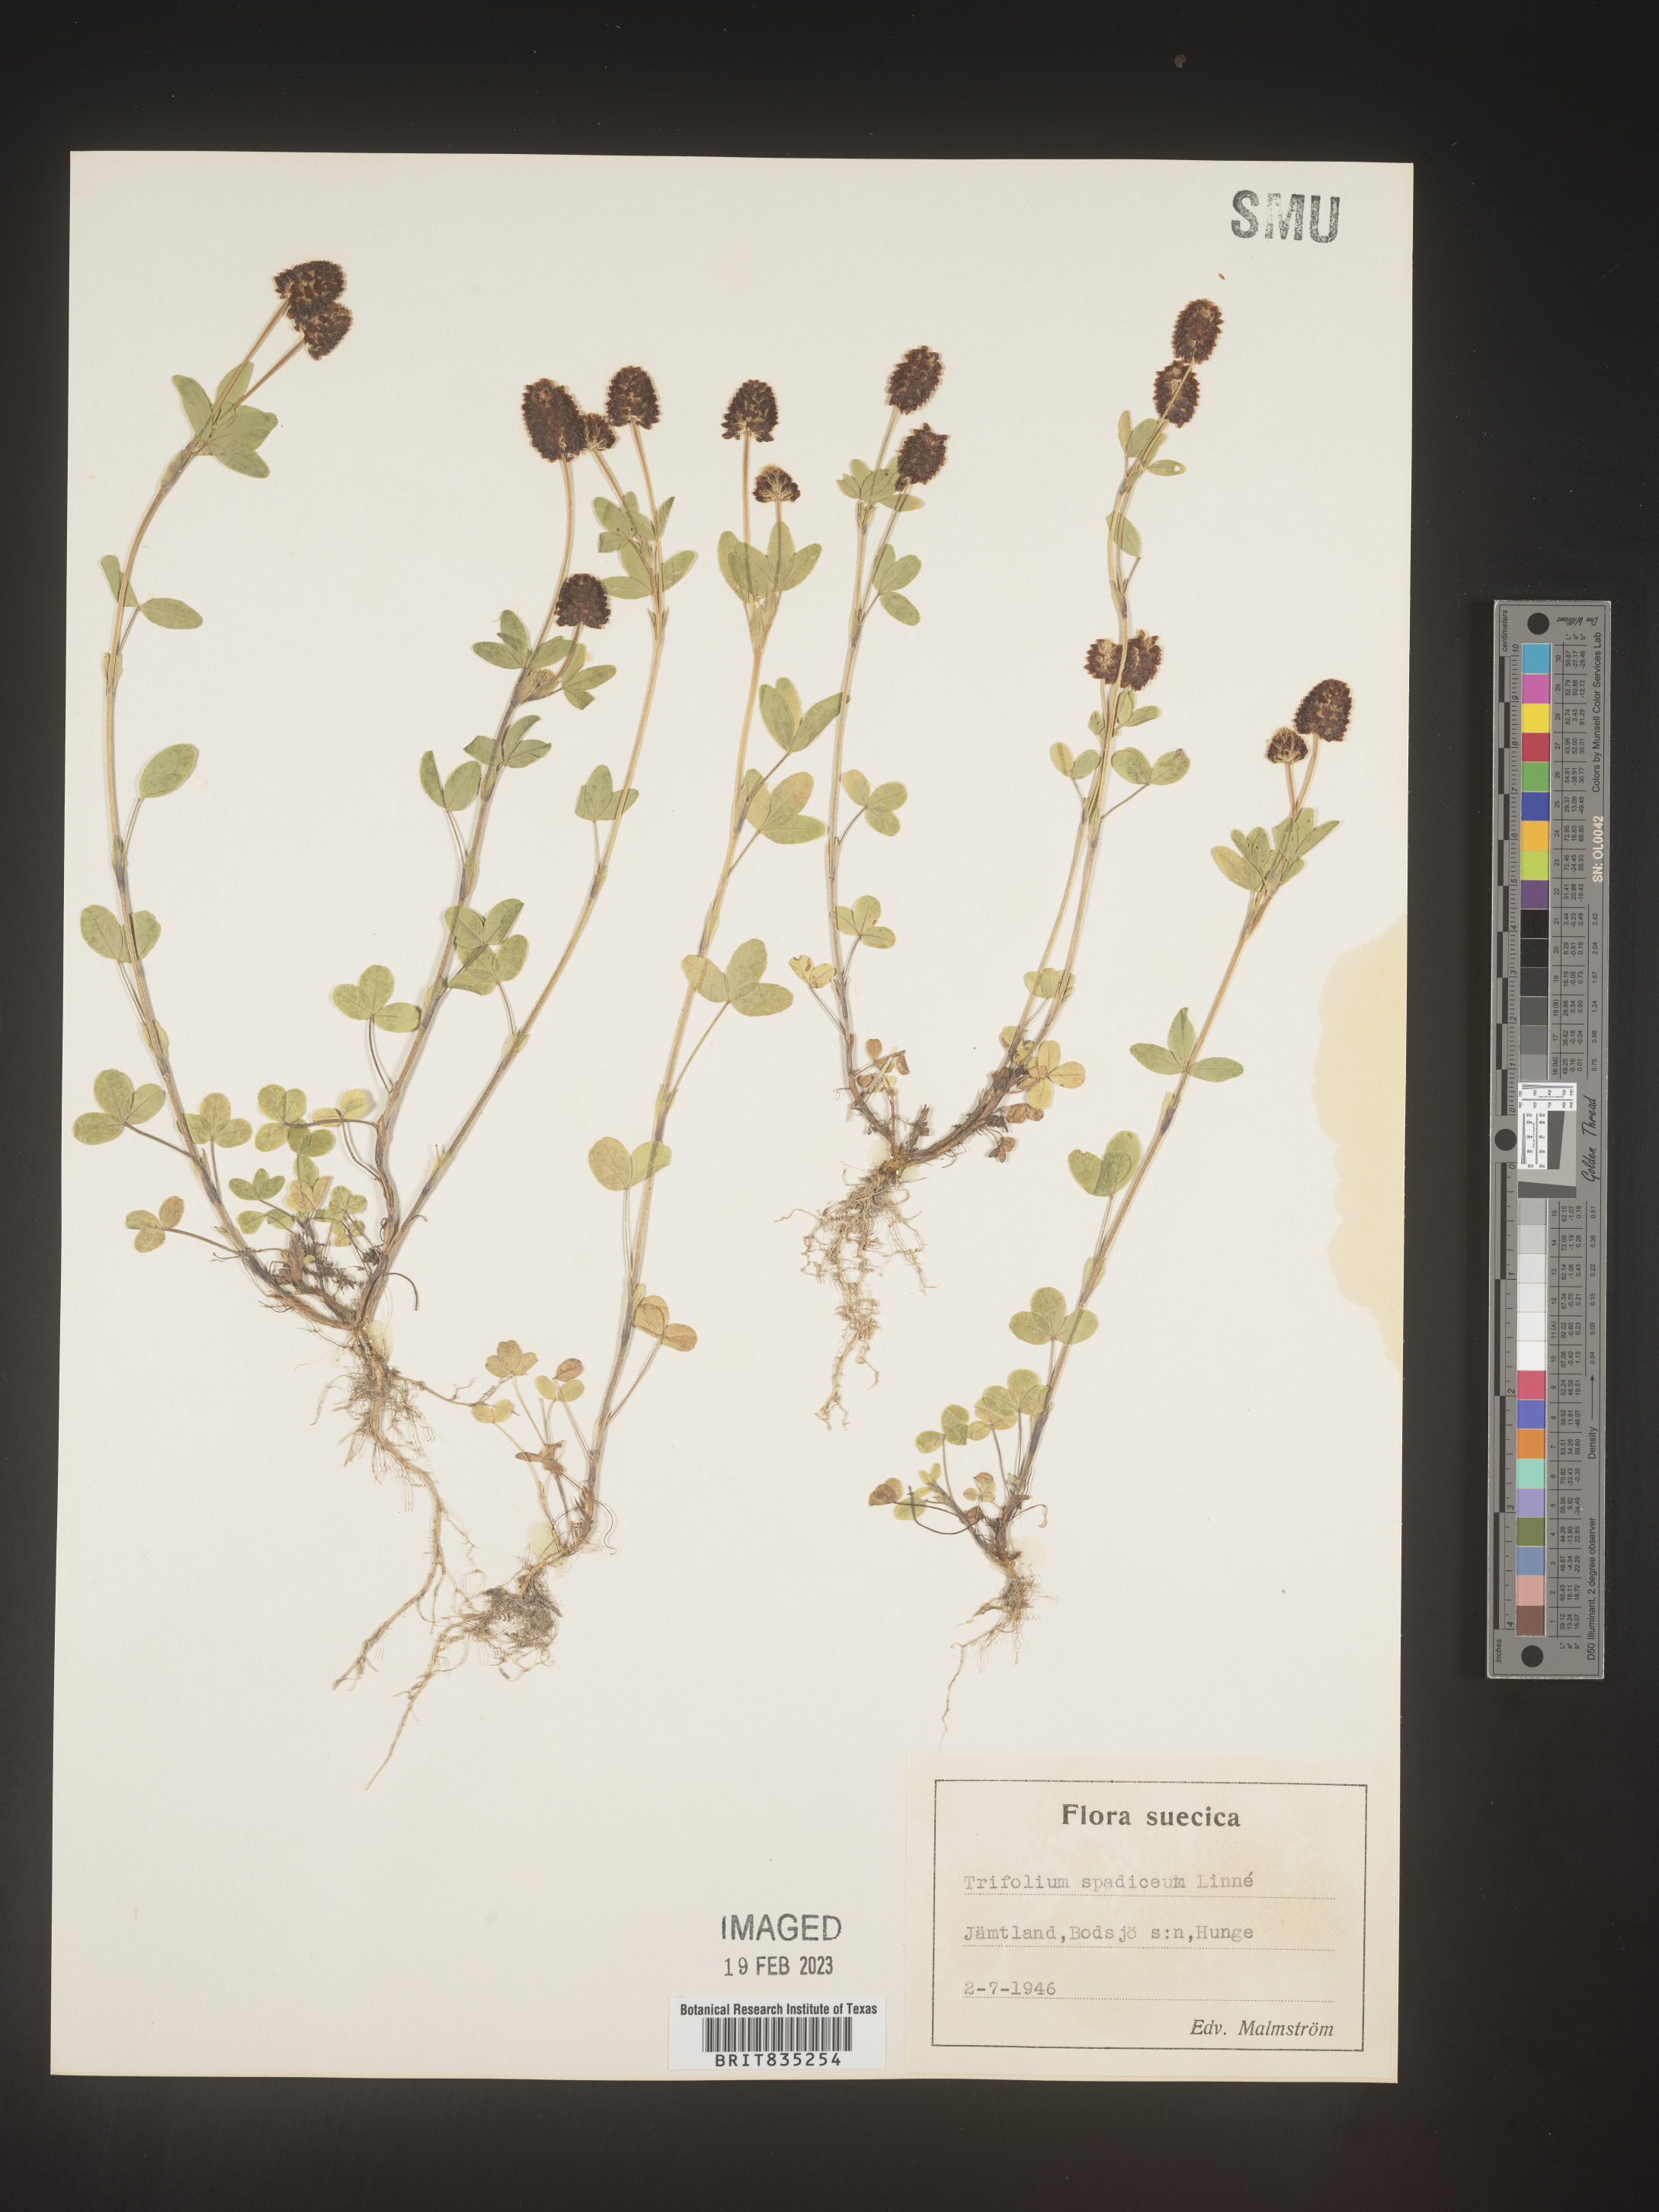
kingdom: Plantae
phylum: Tracheophyta
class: Magnoliopsida
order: Fabales
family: Fabaceae
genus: Trifolium
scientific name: Trifolium
